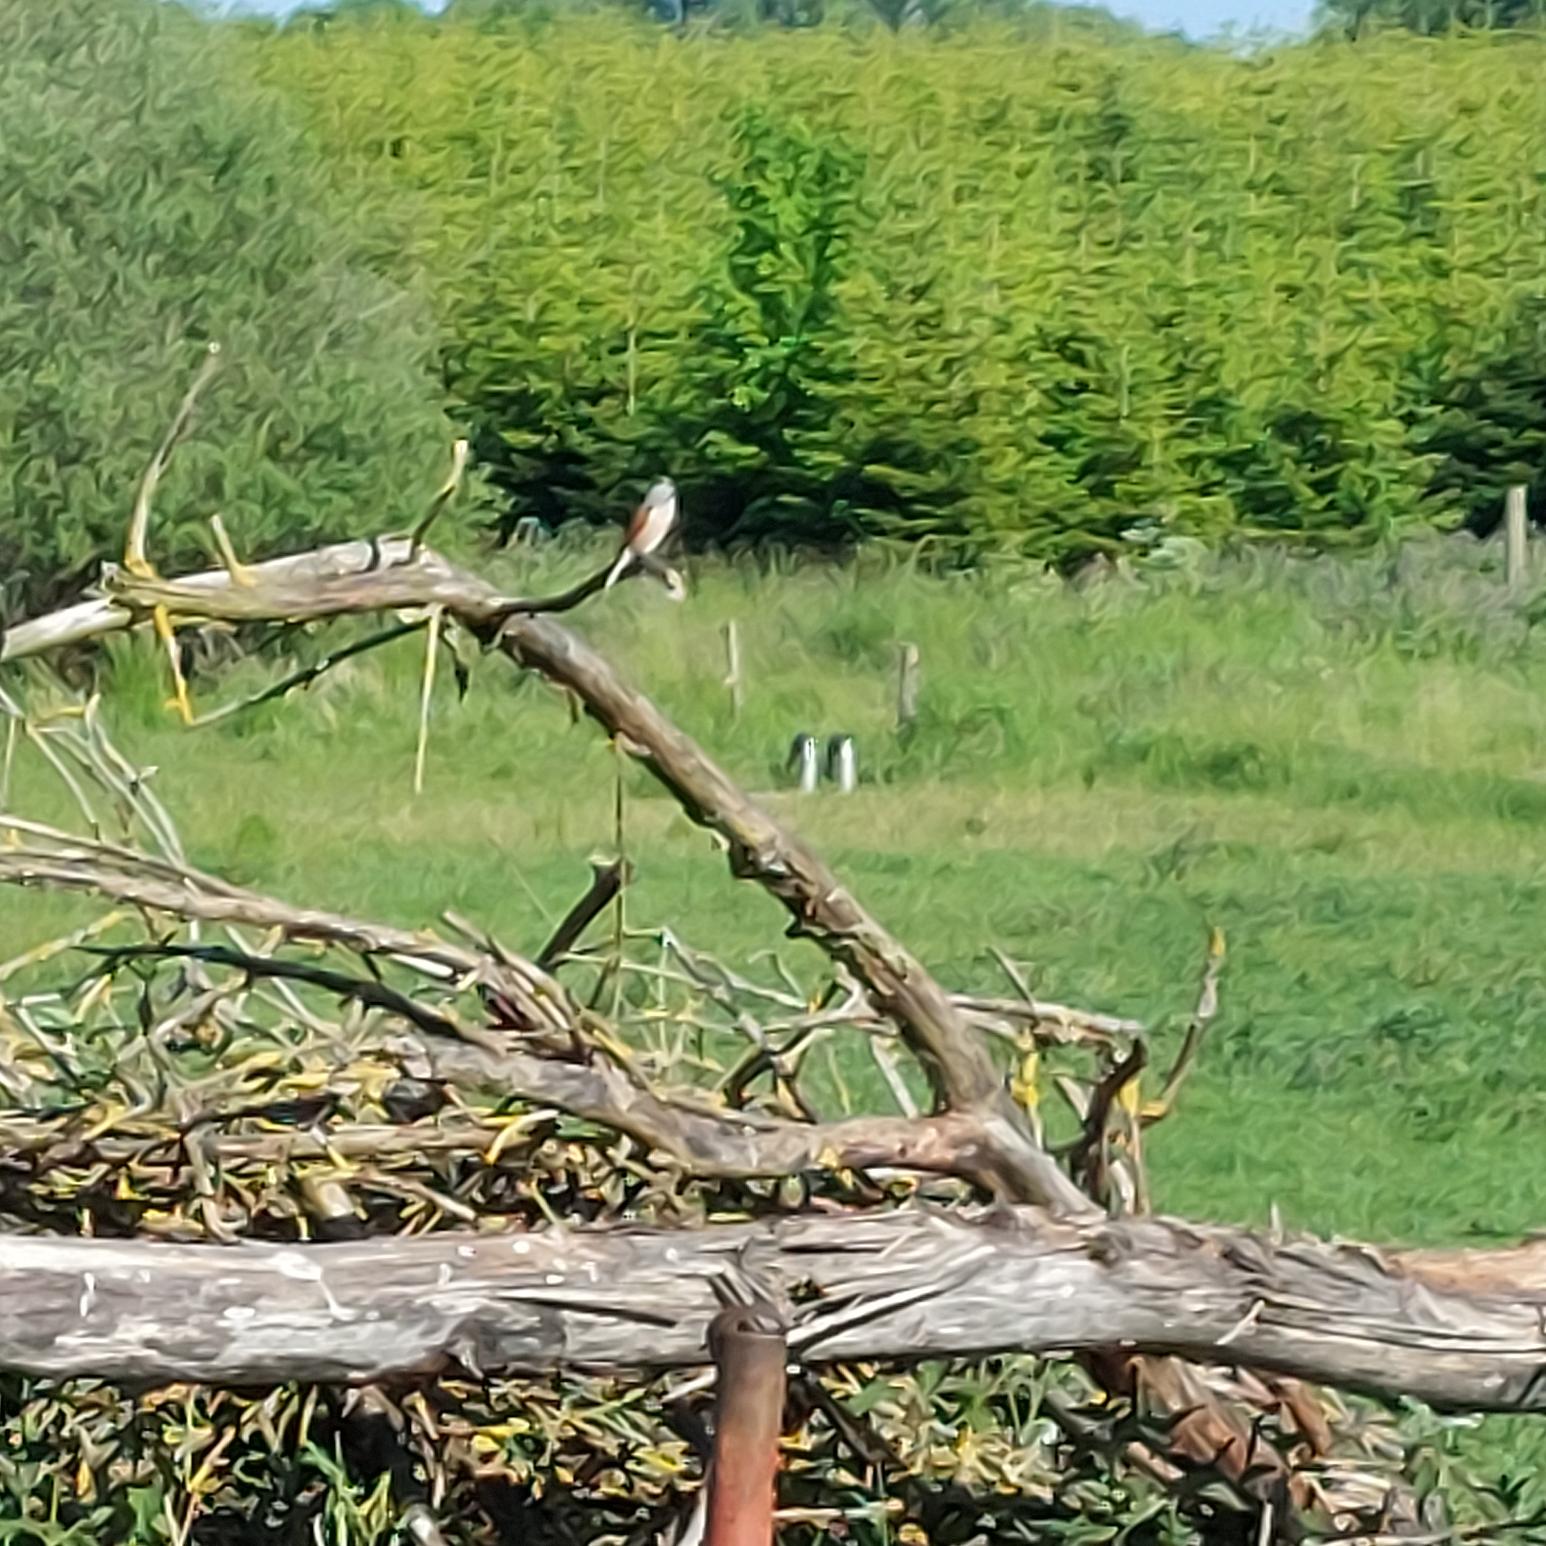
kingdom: Animalia
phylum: Chordata
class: Aves
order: Passeriformes
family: Laniidae
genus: Lanius
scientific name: Lanius collurio
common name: Rødrygget tornskade
